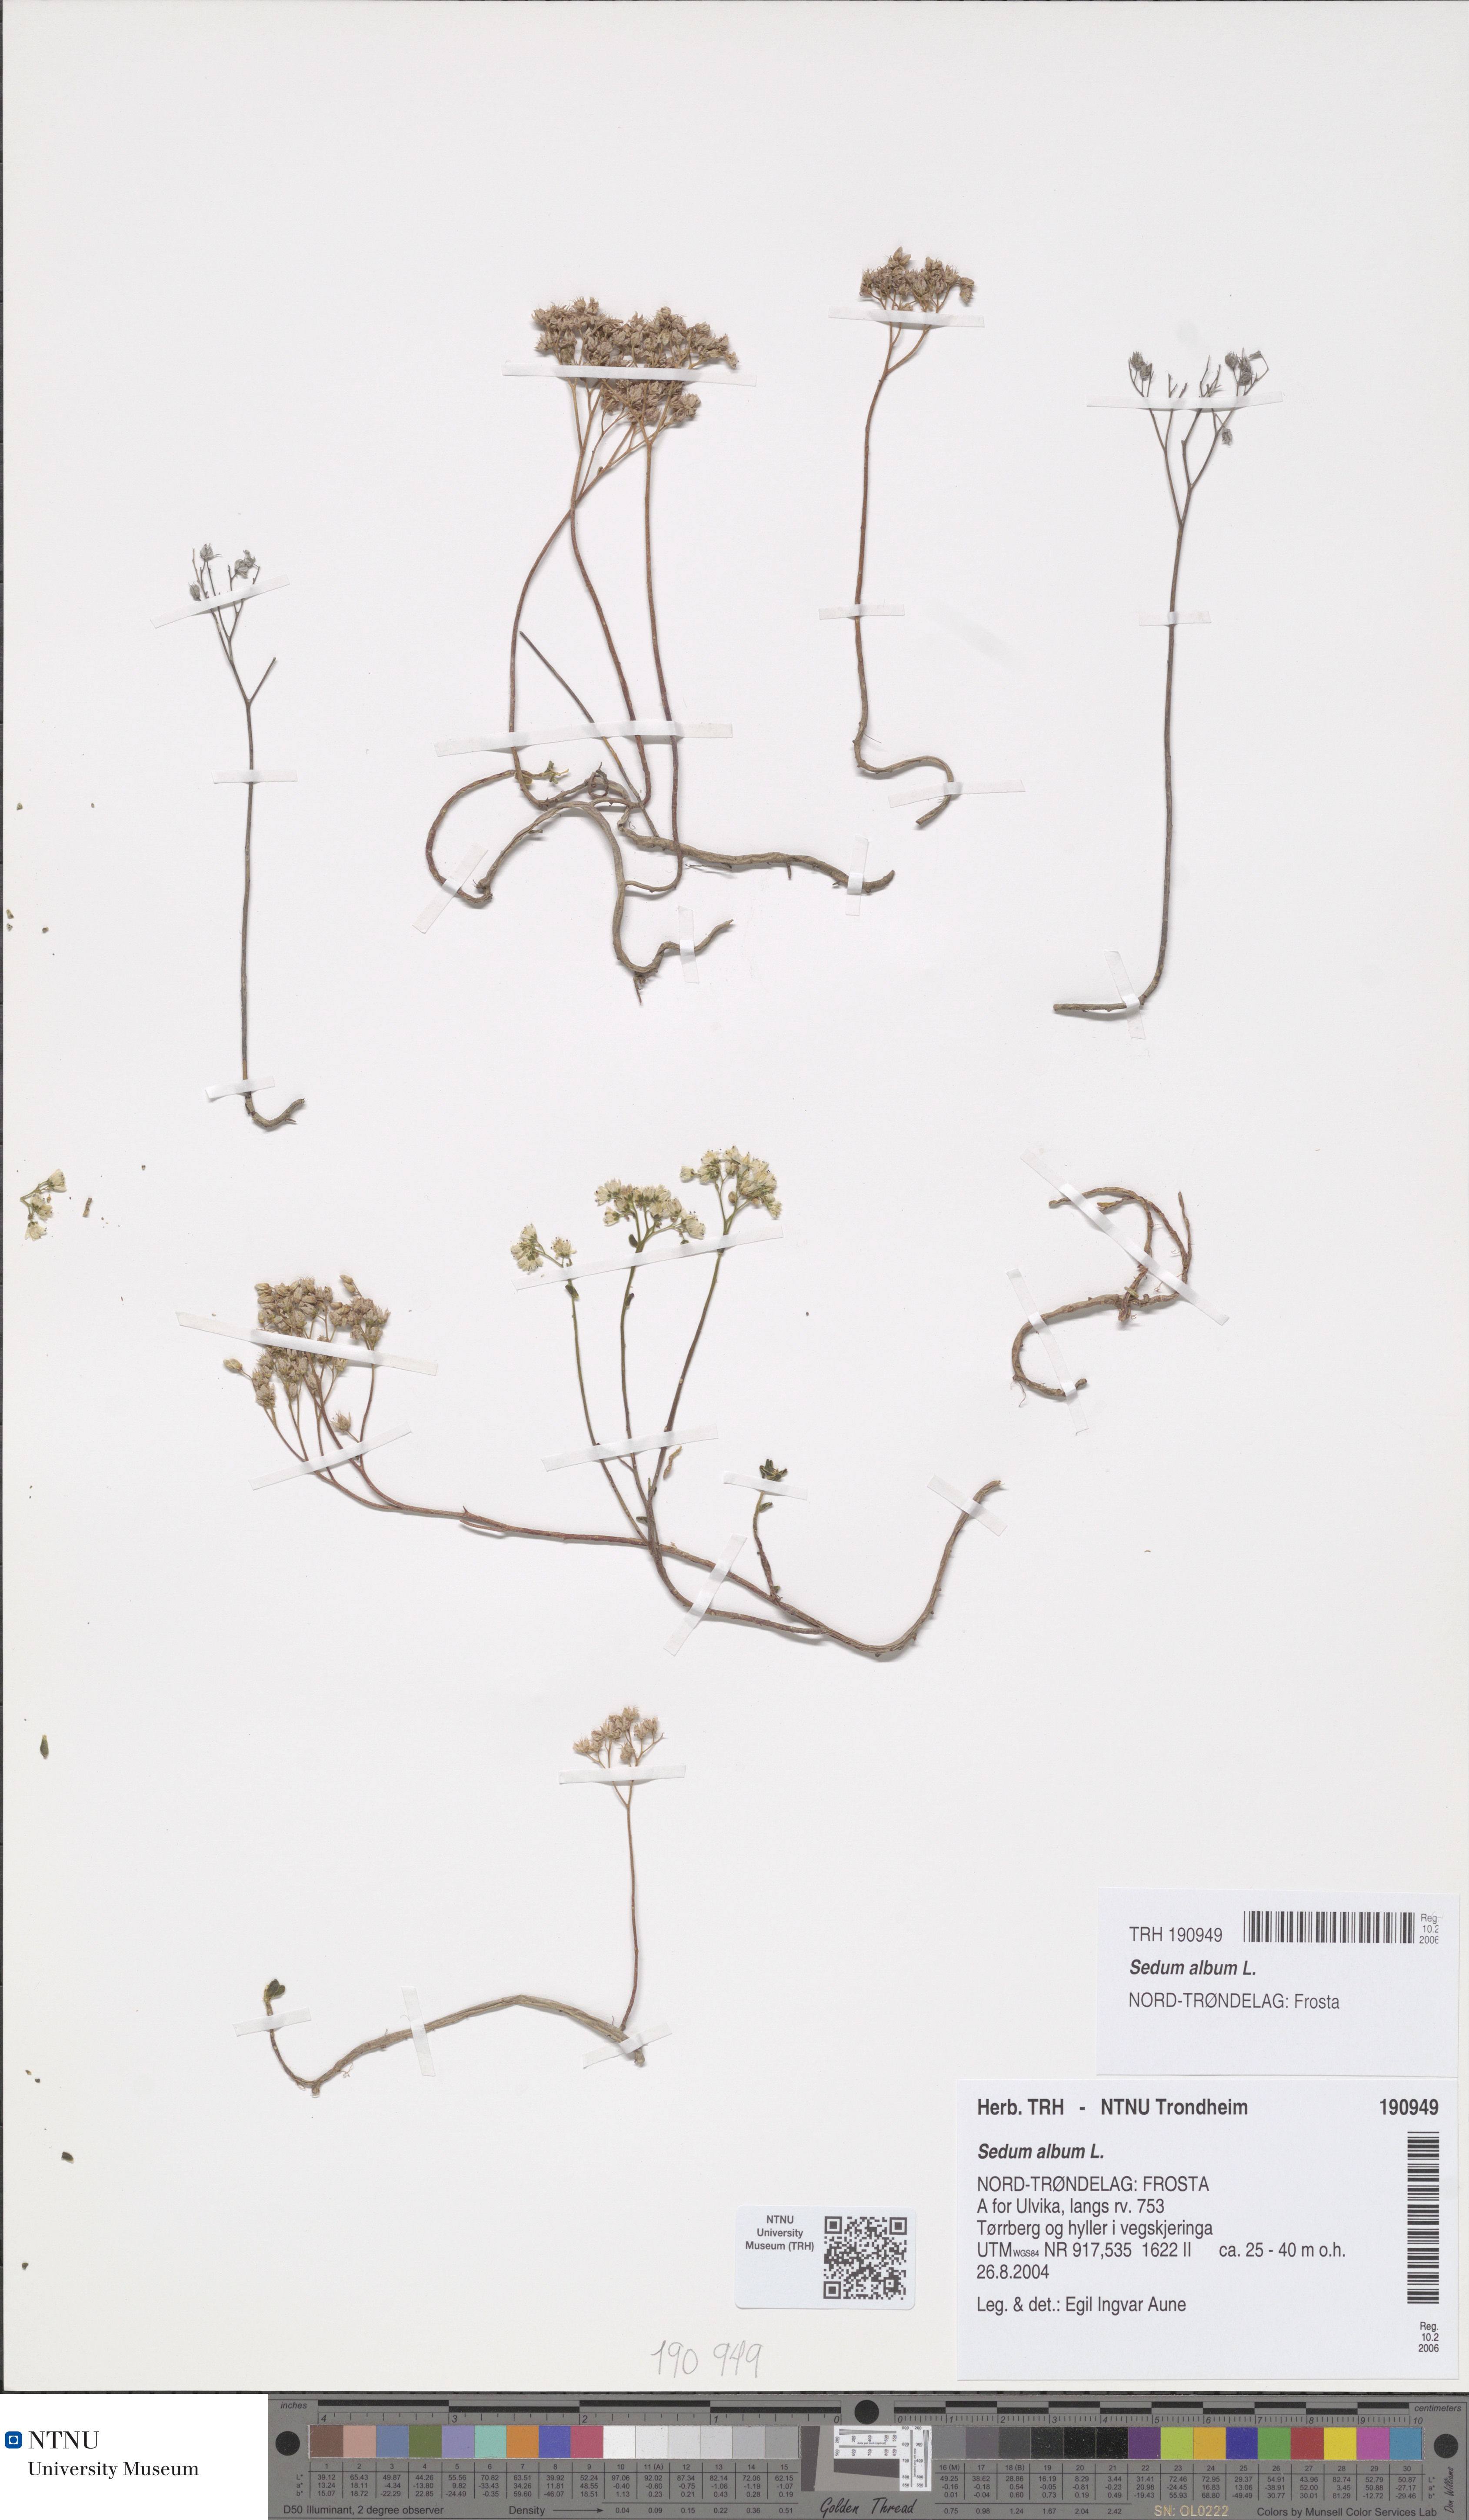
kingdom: Plantae
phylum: Tracheophyta
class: Magnoliopsida
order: Saxifragales
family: Crassulaceae
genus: Sedum
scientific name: Sedum album
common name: White stonecrop
